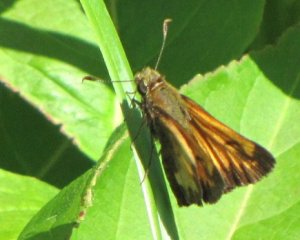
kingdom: Animalia
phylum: Arthropoda
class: Insecta
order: Lepidoptera
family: Hesperiidae
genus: Lon
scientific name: Lon hobomok
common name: Hobomok Skipper
